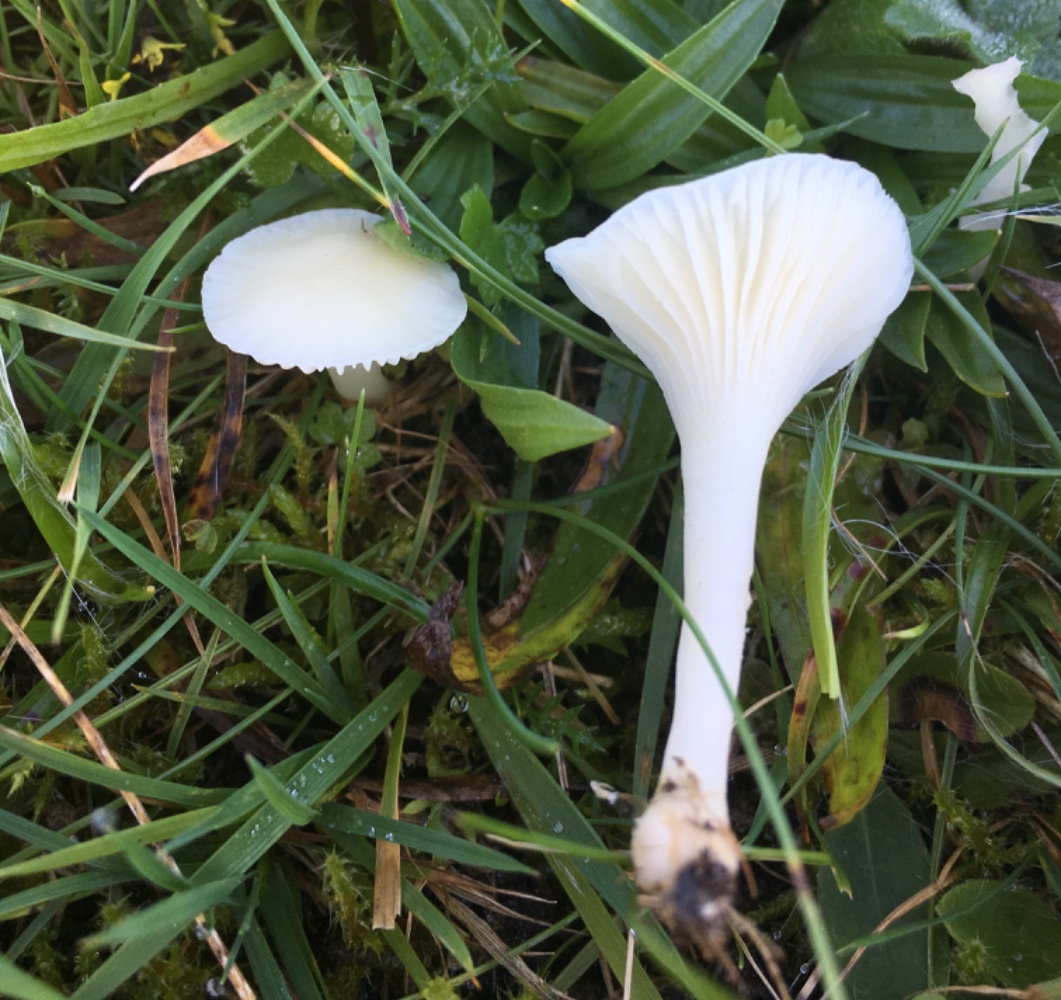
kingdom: Fungi
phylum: Basidiomycota
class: Agaricomycetes
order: Agaricales
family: Hygrophoraceae
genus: Cuphophyllus
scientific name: Cuphophyllus virgineus
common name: snehvid vokshat
